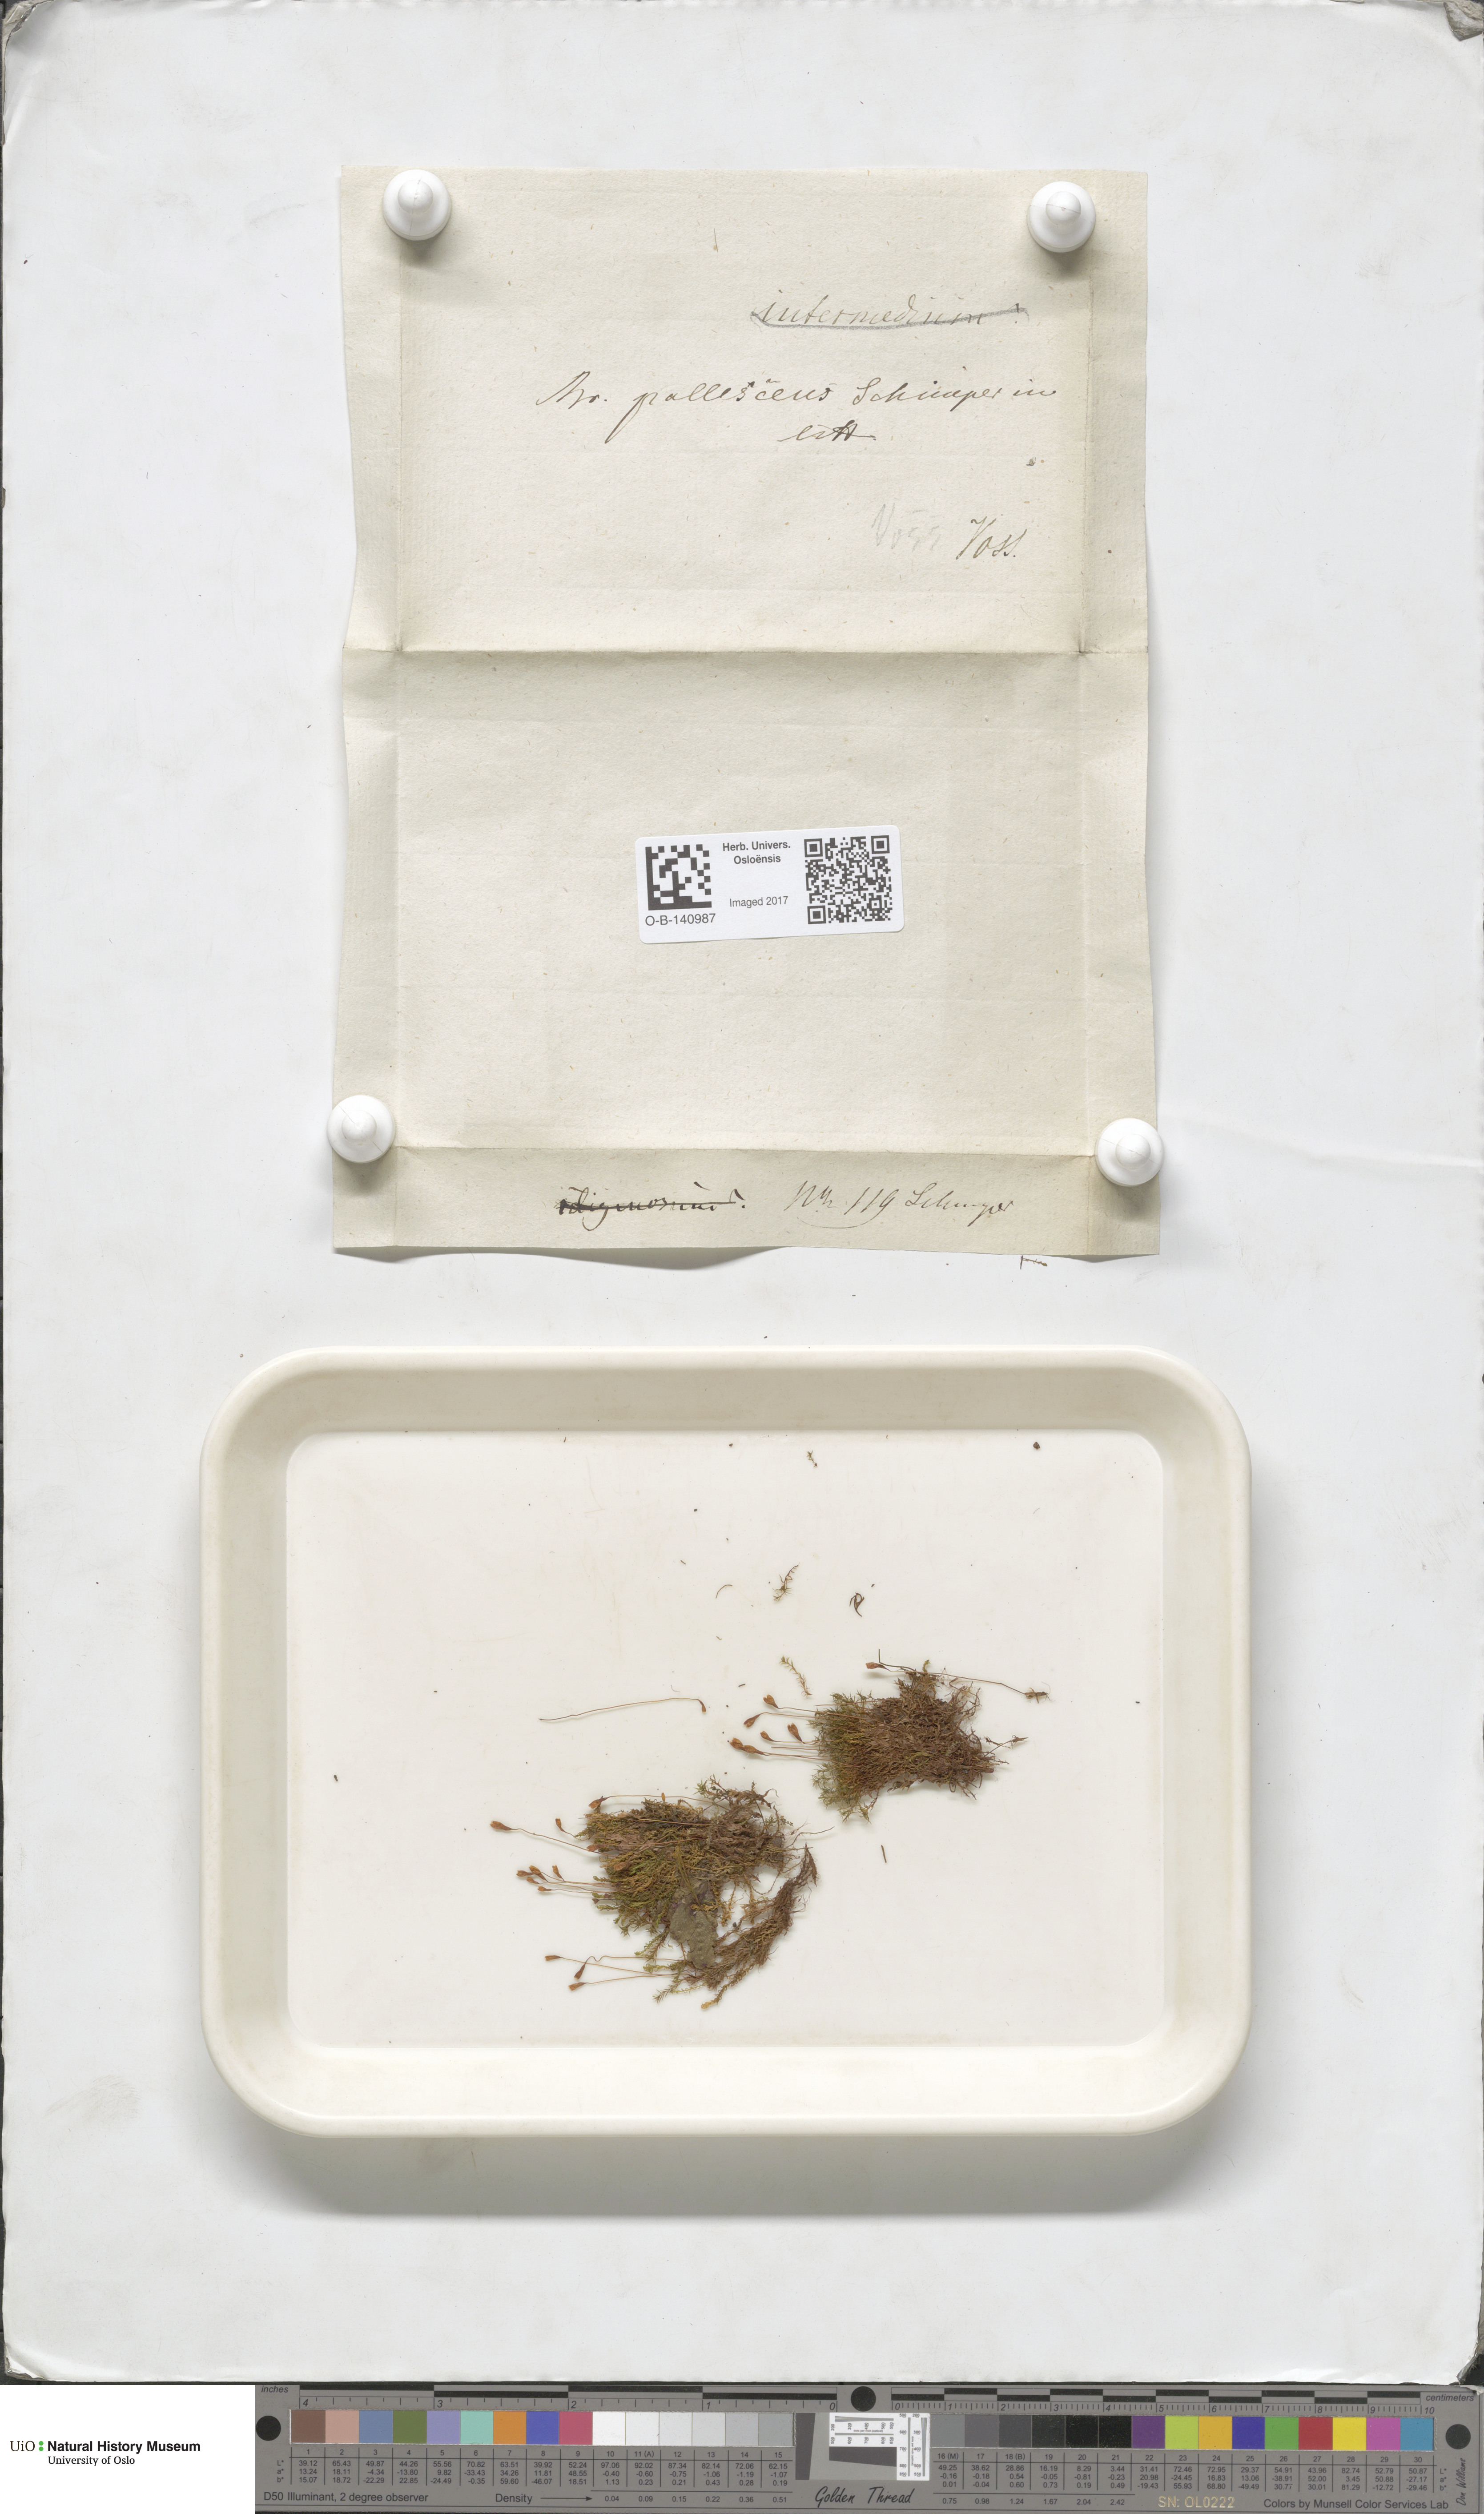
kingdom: Plantae
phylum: Bryophyta
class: Bryopsida
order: Bryales
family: Bryaceae
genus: Ptychostomum
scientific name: Ptychostomum pallescens
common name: Tall-clustered thread-moss
